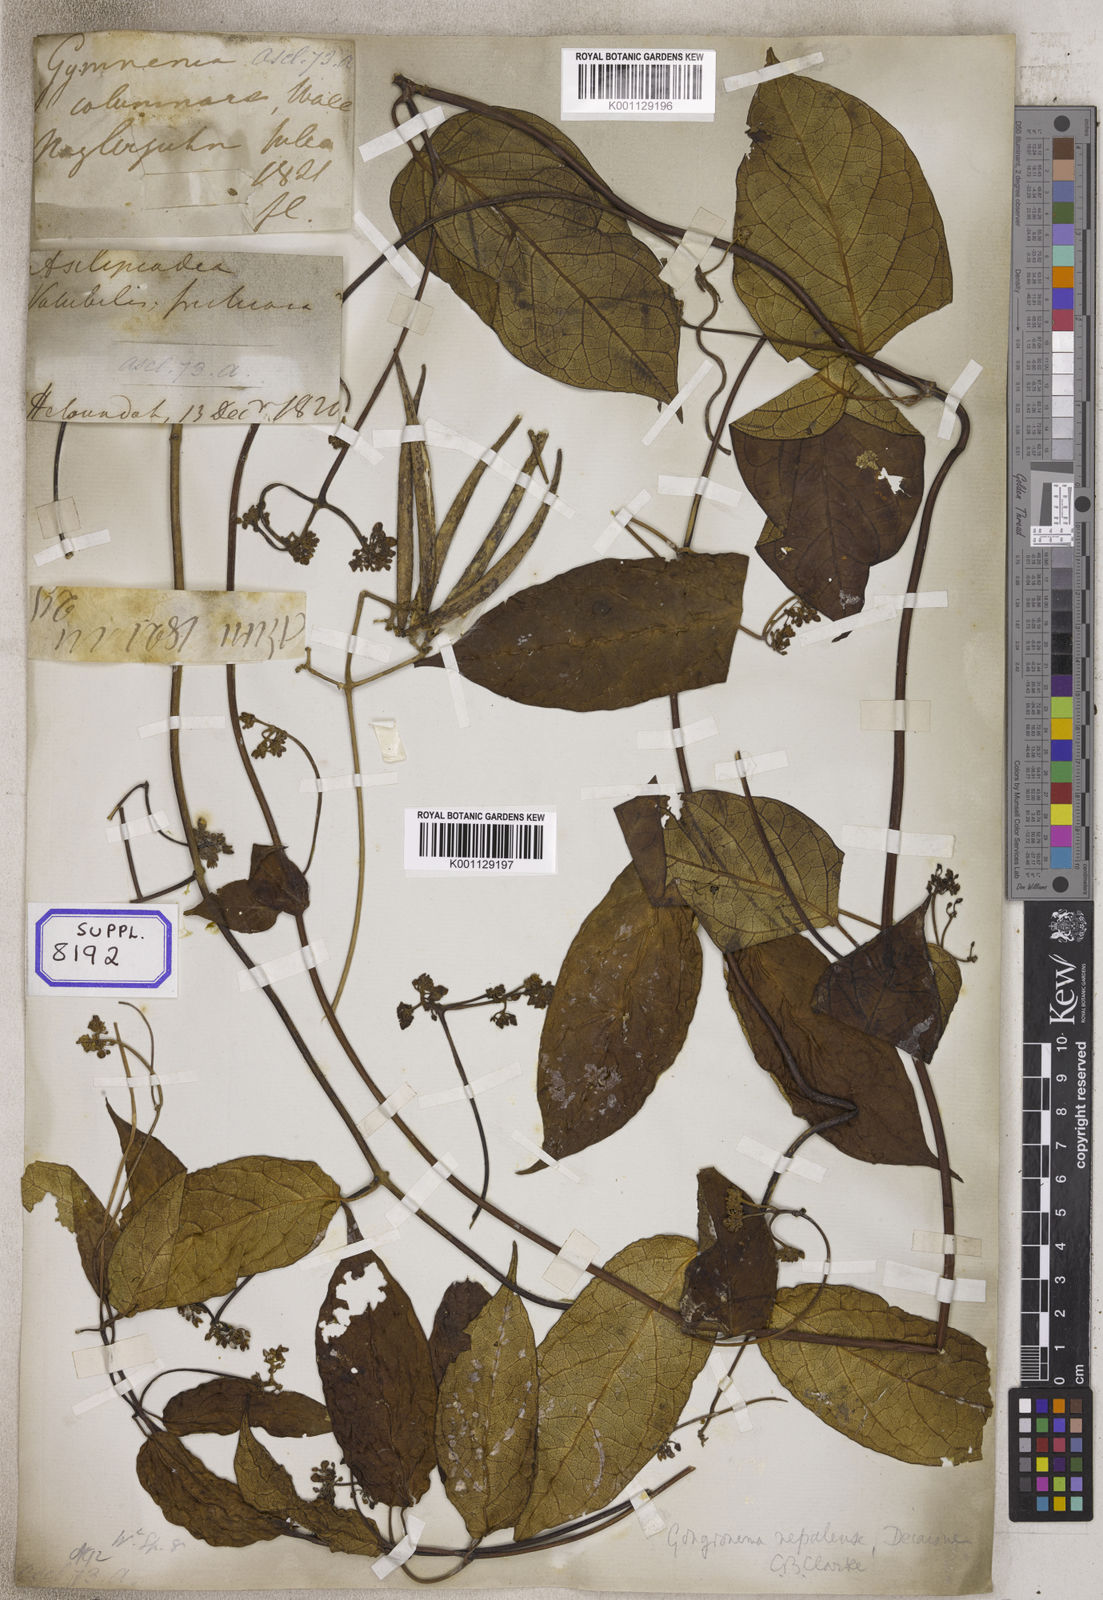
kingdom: Plantae
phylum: Tracheophyta
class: Magnoliopsida
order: Gentianales
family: Apocynaceae
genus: Gymnema
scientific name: Gymnema
